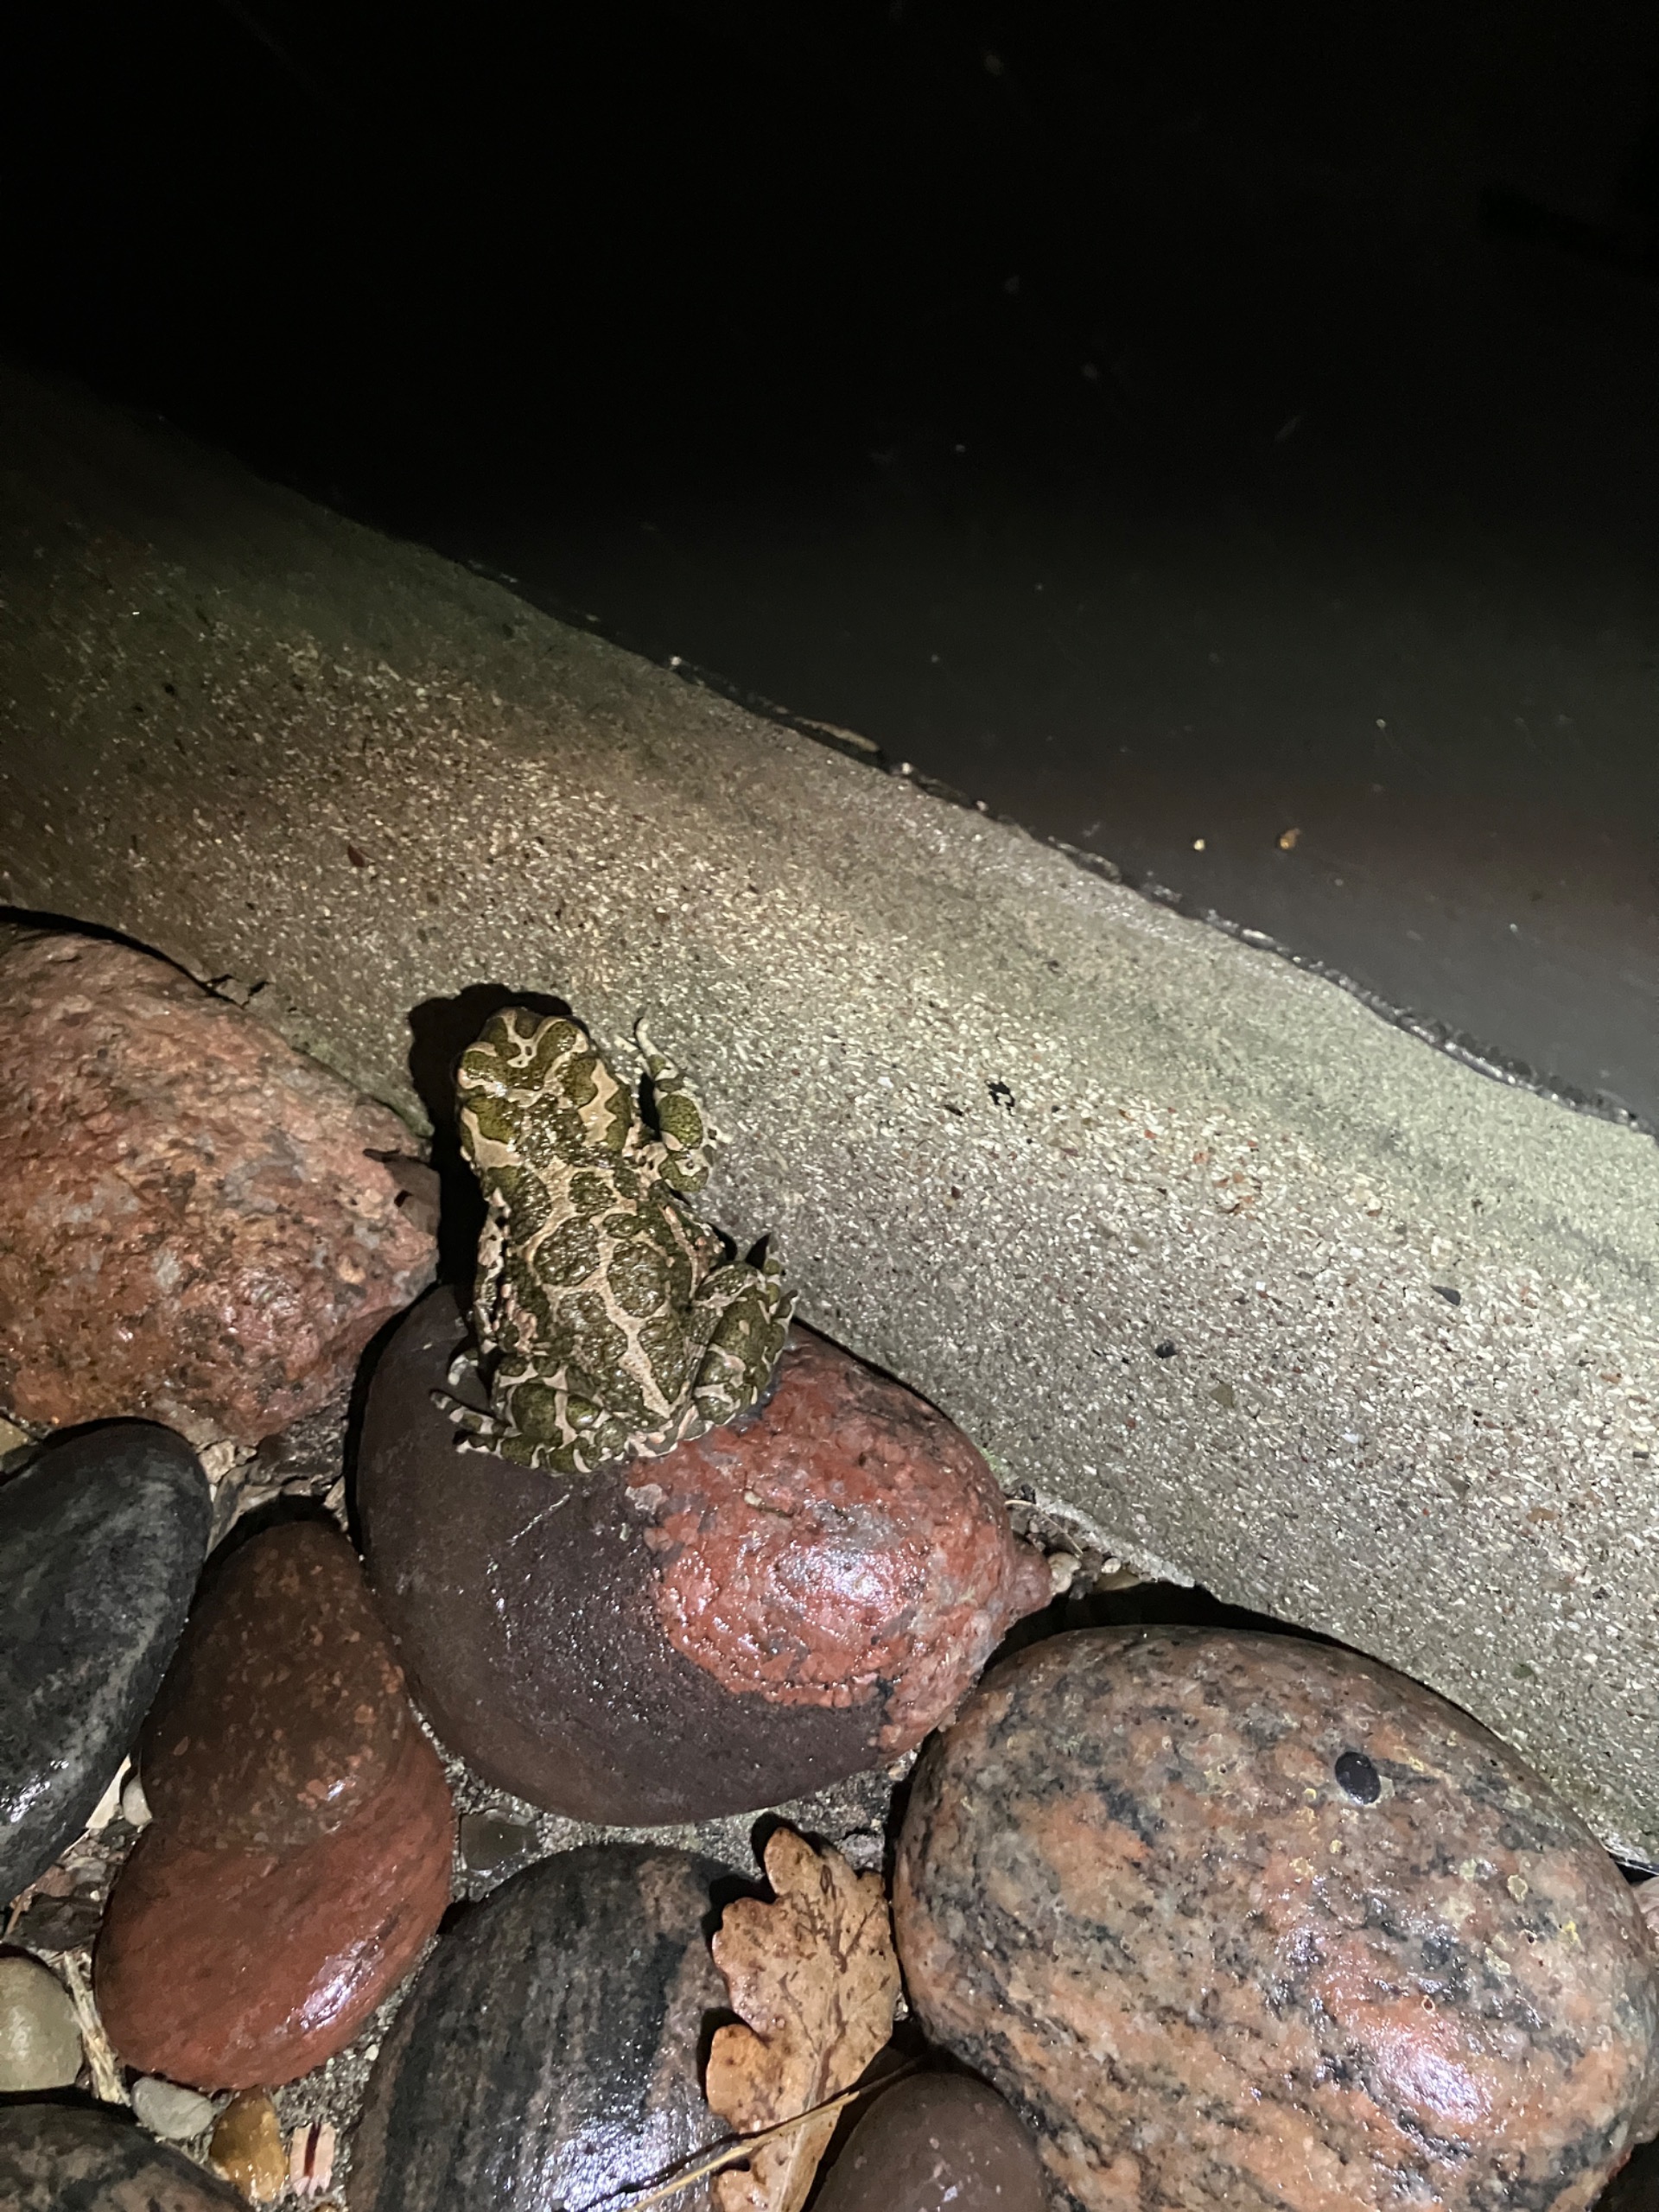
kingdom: Animalia
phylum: Chordata
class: Amphibia
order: Anura
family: Bufonidae
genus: Bufotes
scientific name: Bufotes viridis
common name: Grønbroget tudse
